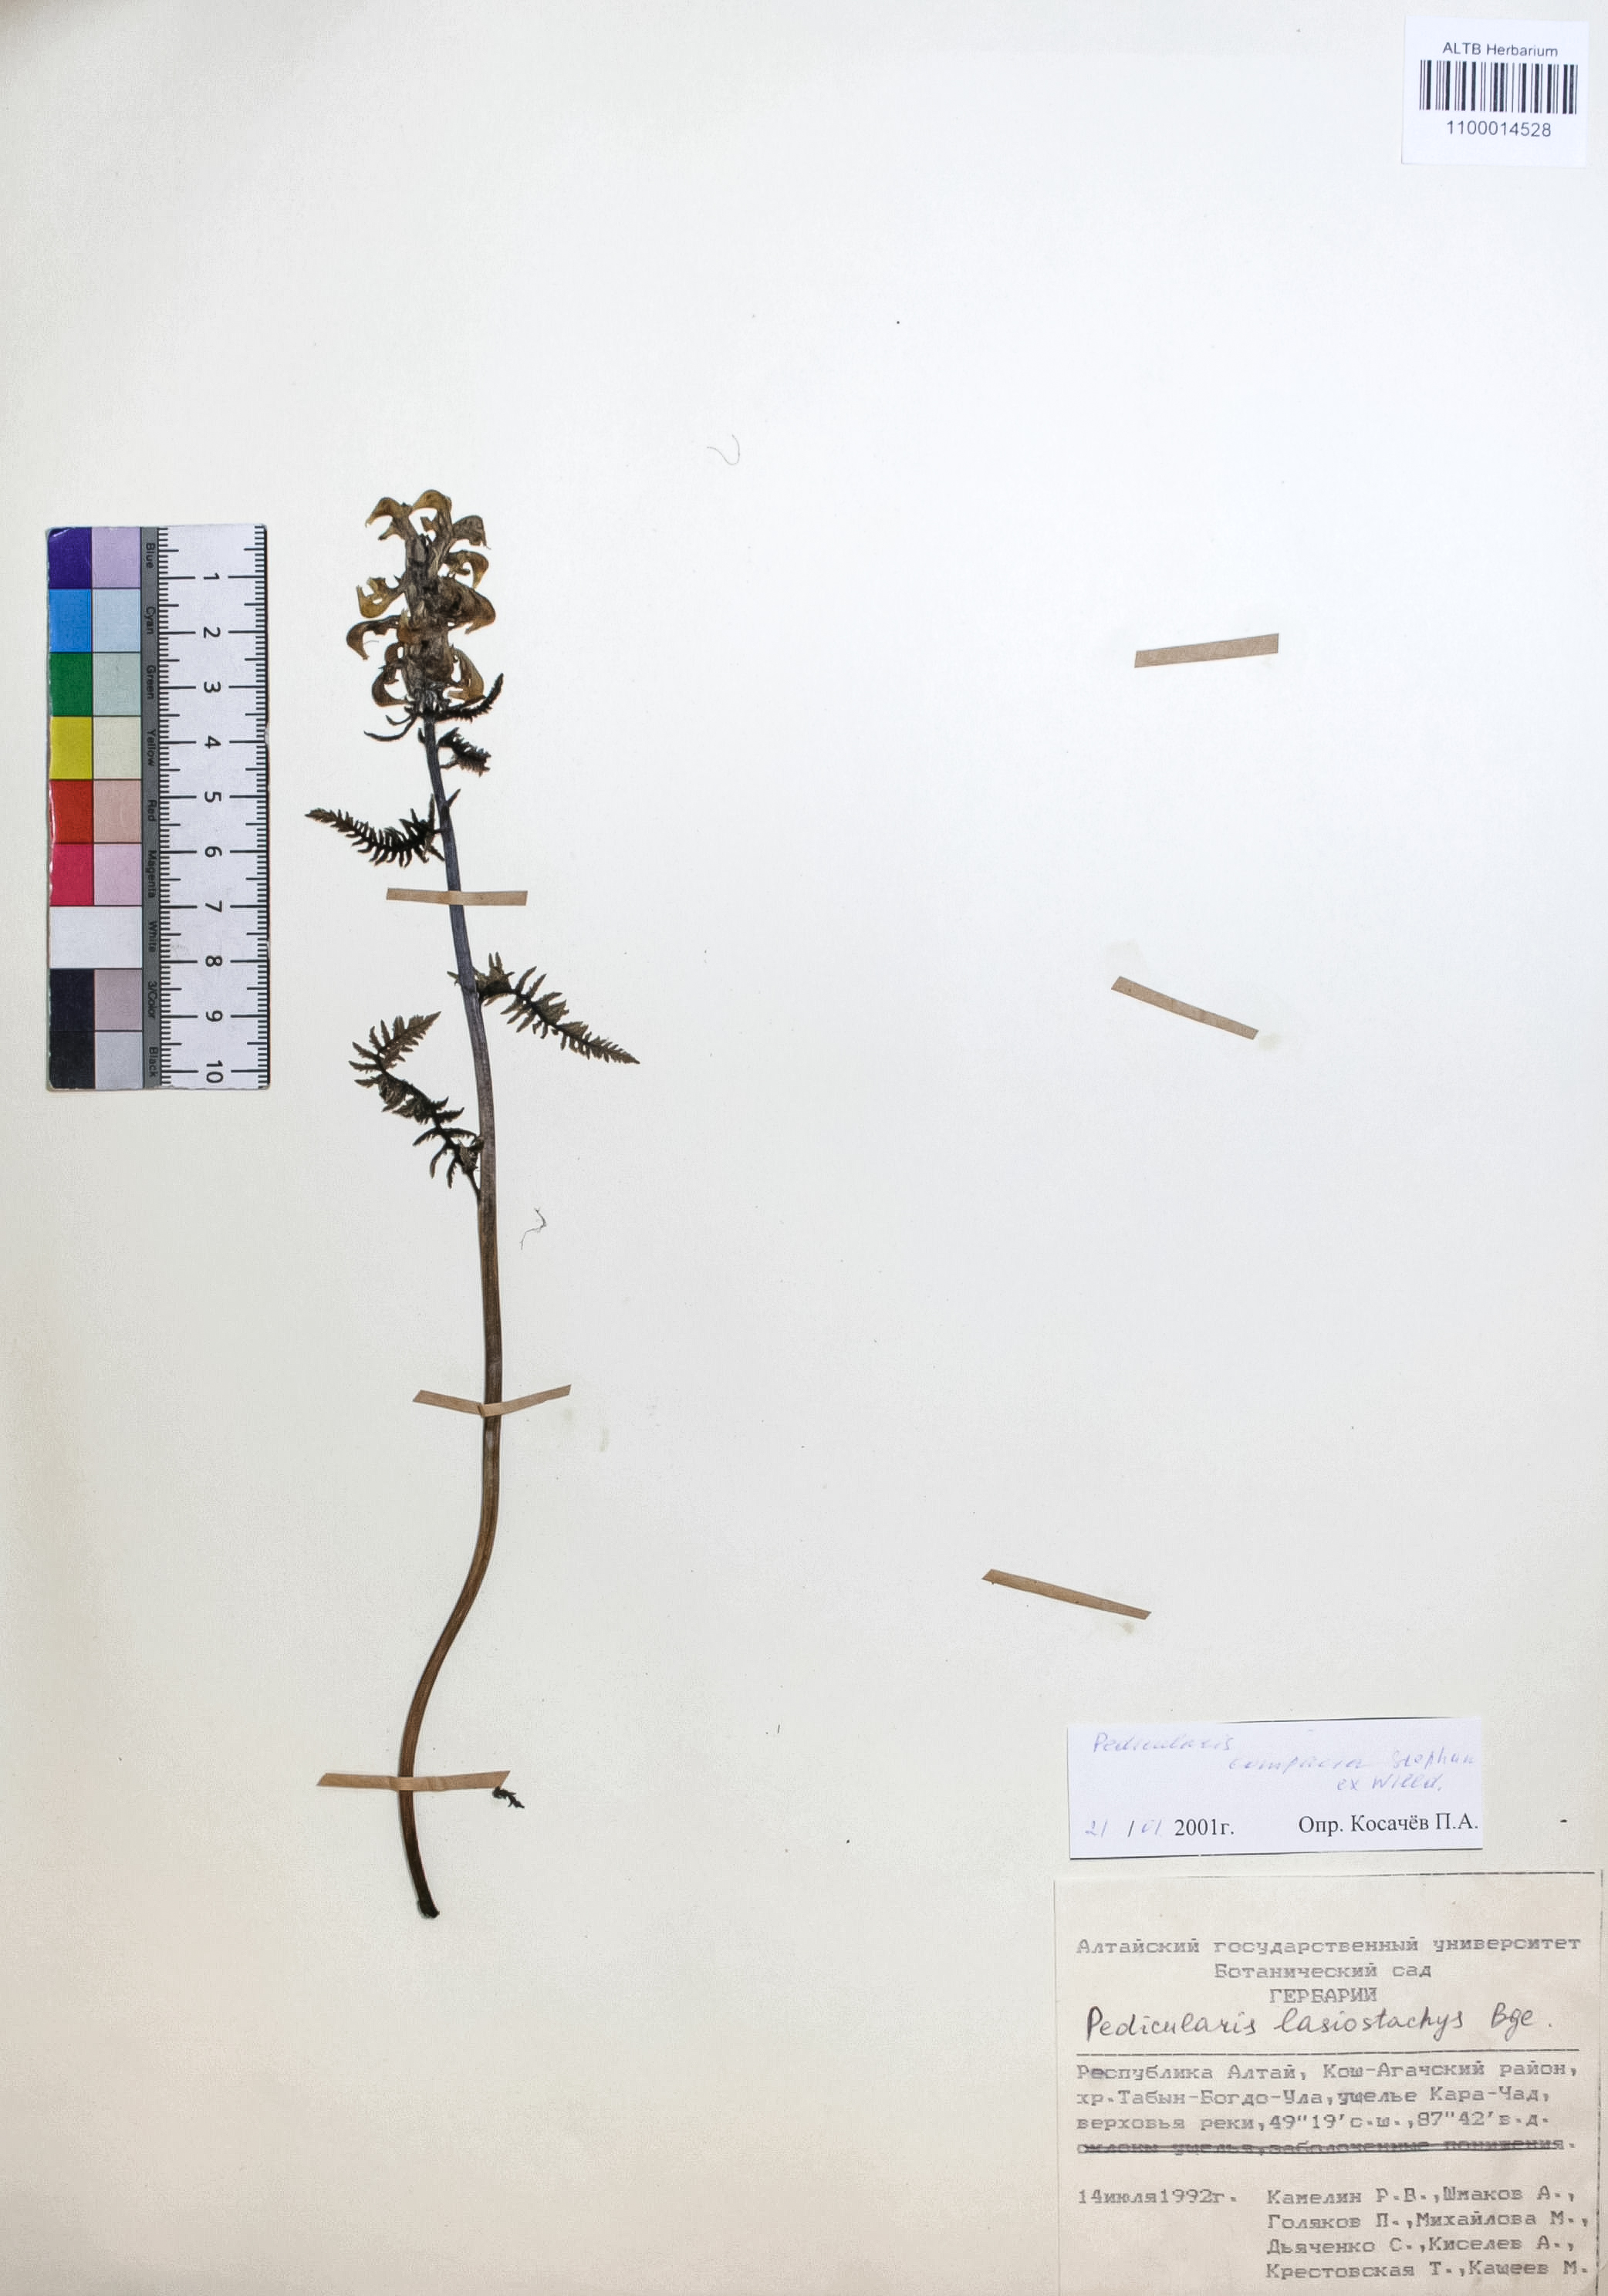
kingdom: Plantae
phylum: Tracheophyta
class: Magnoliopsida
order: Lamiales
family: Orobanchaceae
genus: Pedicularis
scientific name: Pedicularis compacta
